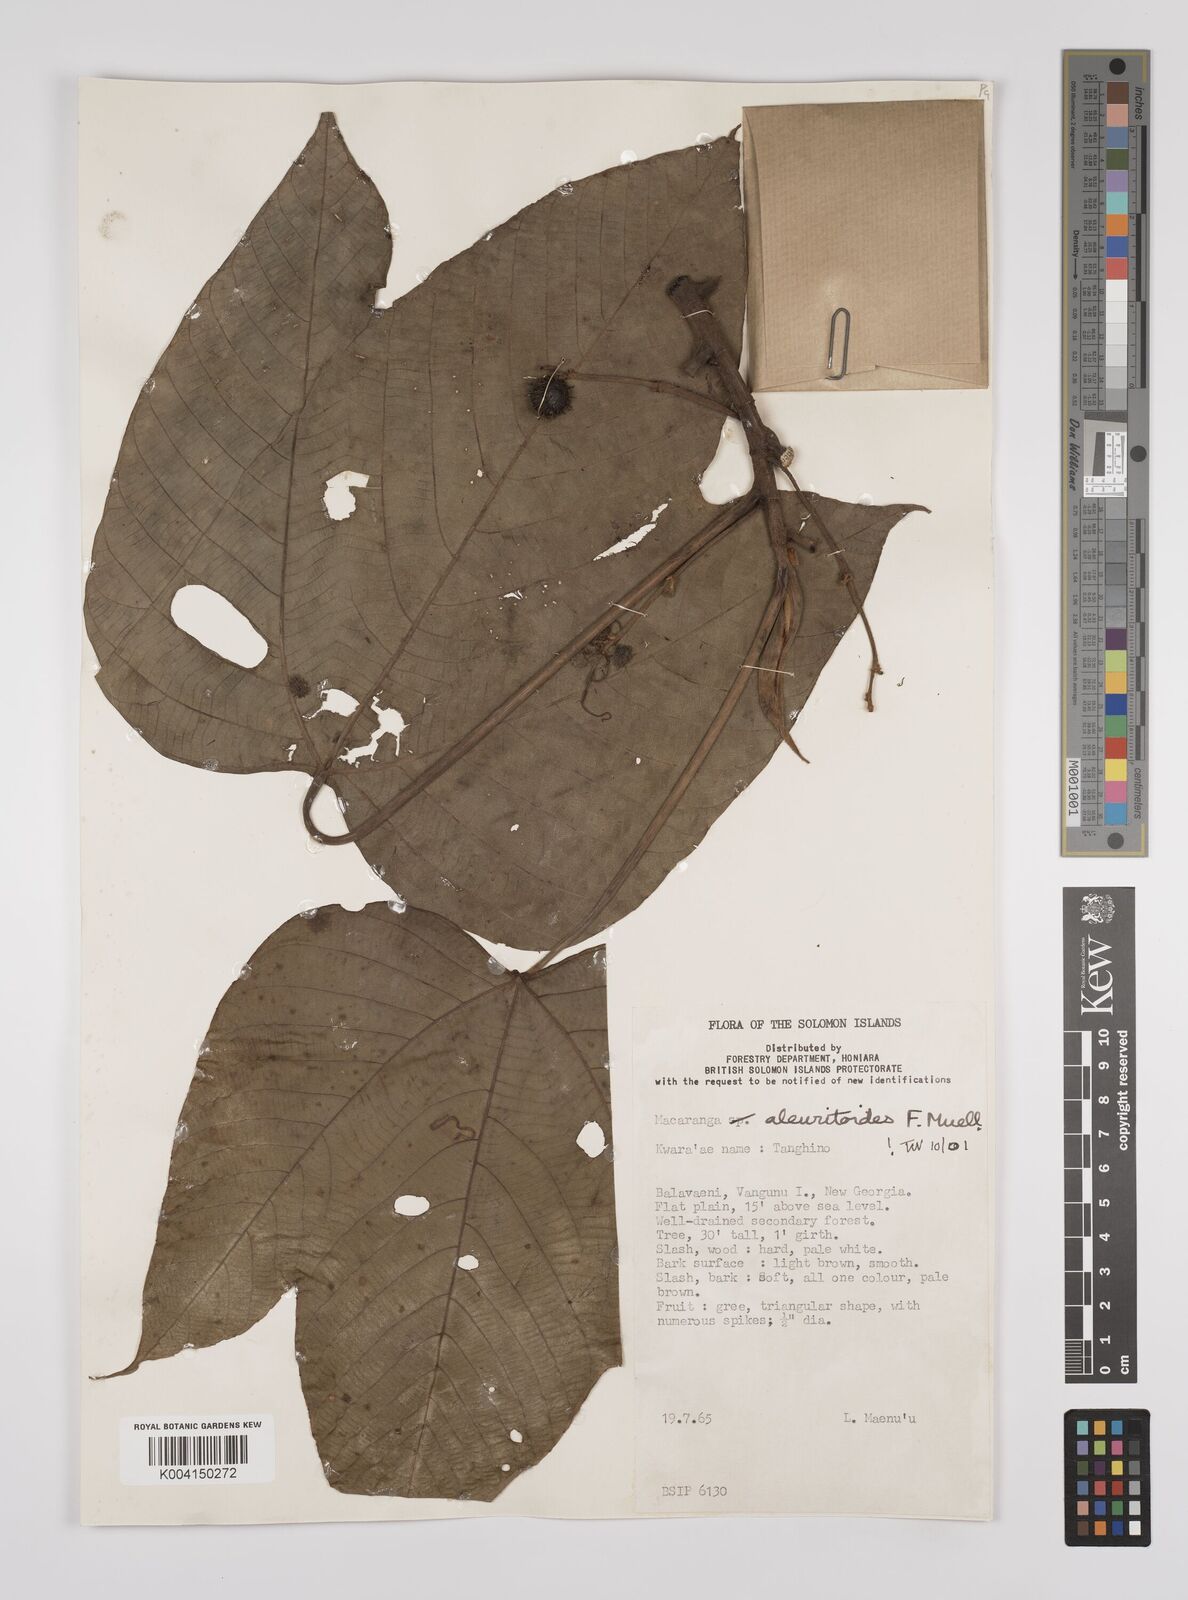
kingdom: Plantae
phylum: Tracheophyta
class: Magnoliopsida
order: Malpighiales
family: Euphorbiaceae
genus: Macaranga
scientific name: Macaranga aleuritoides
